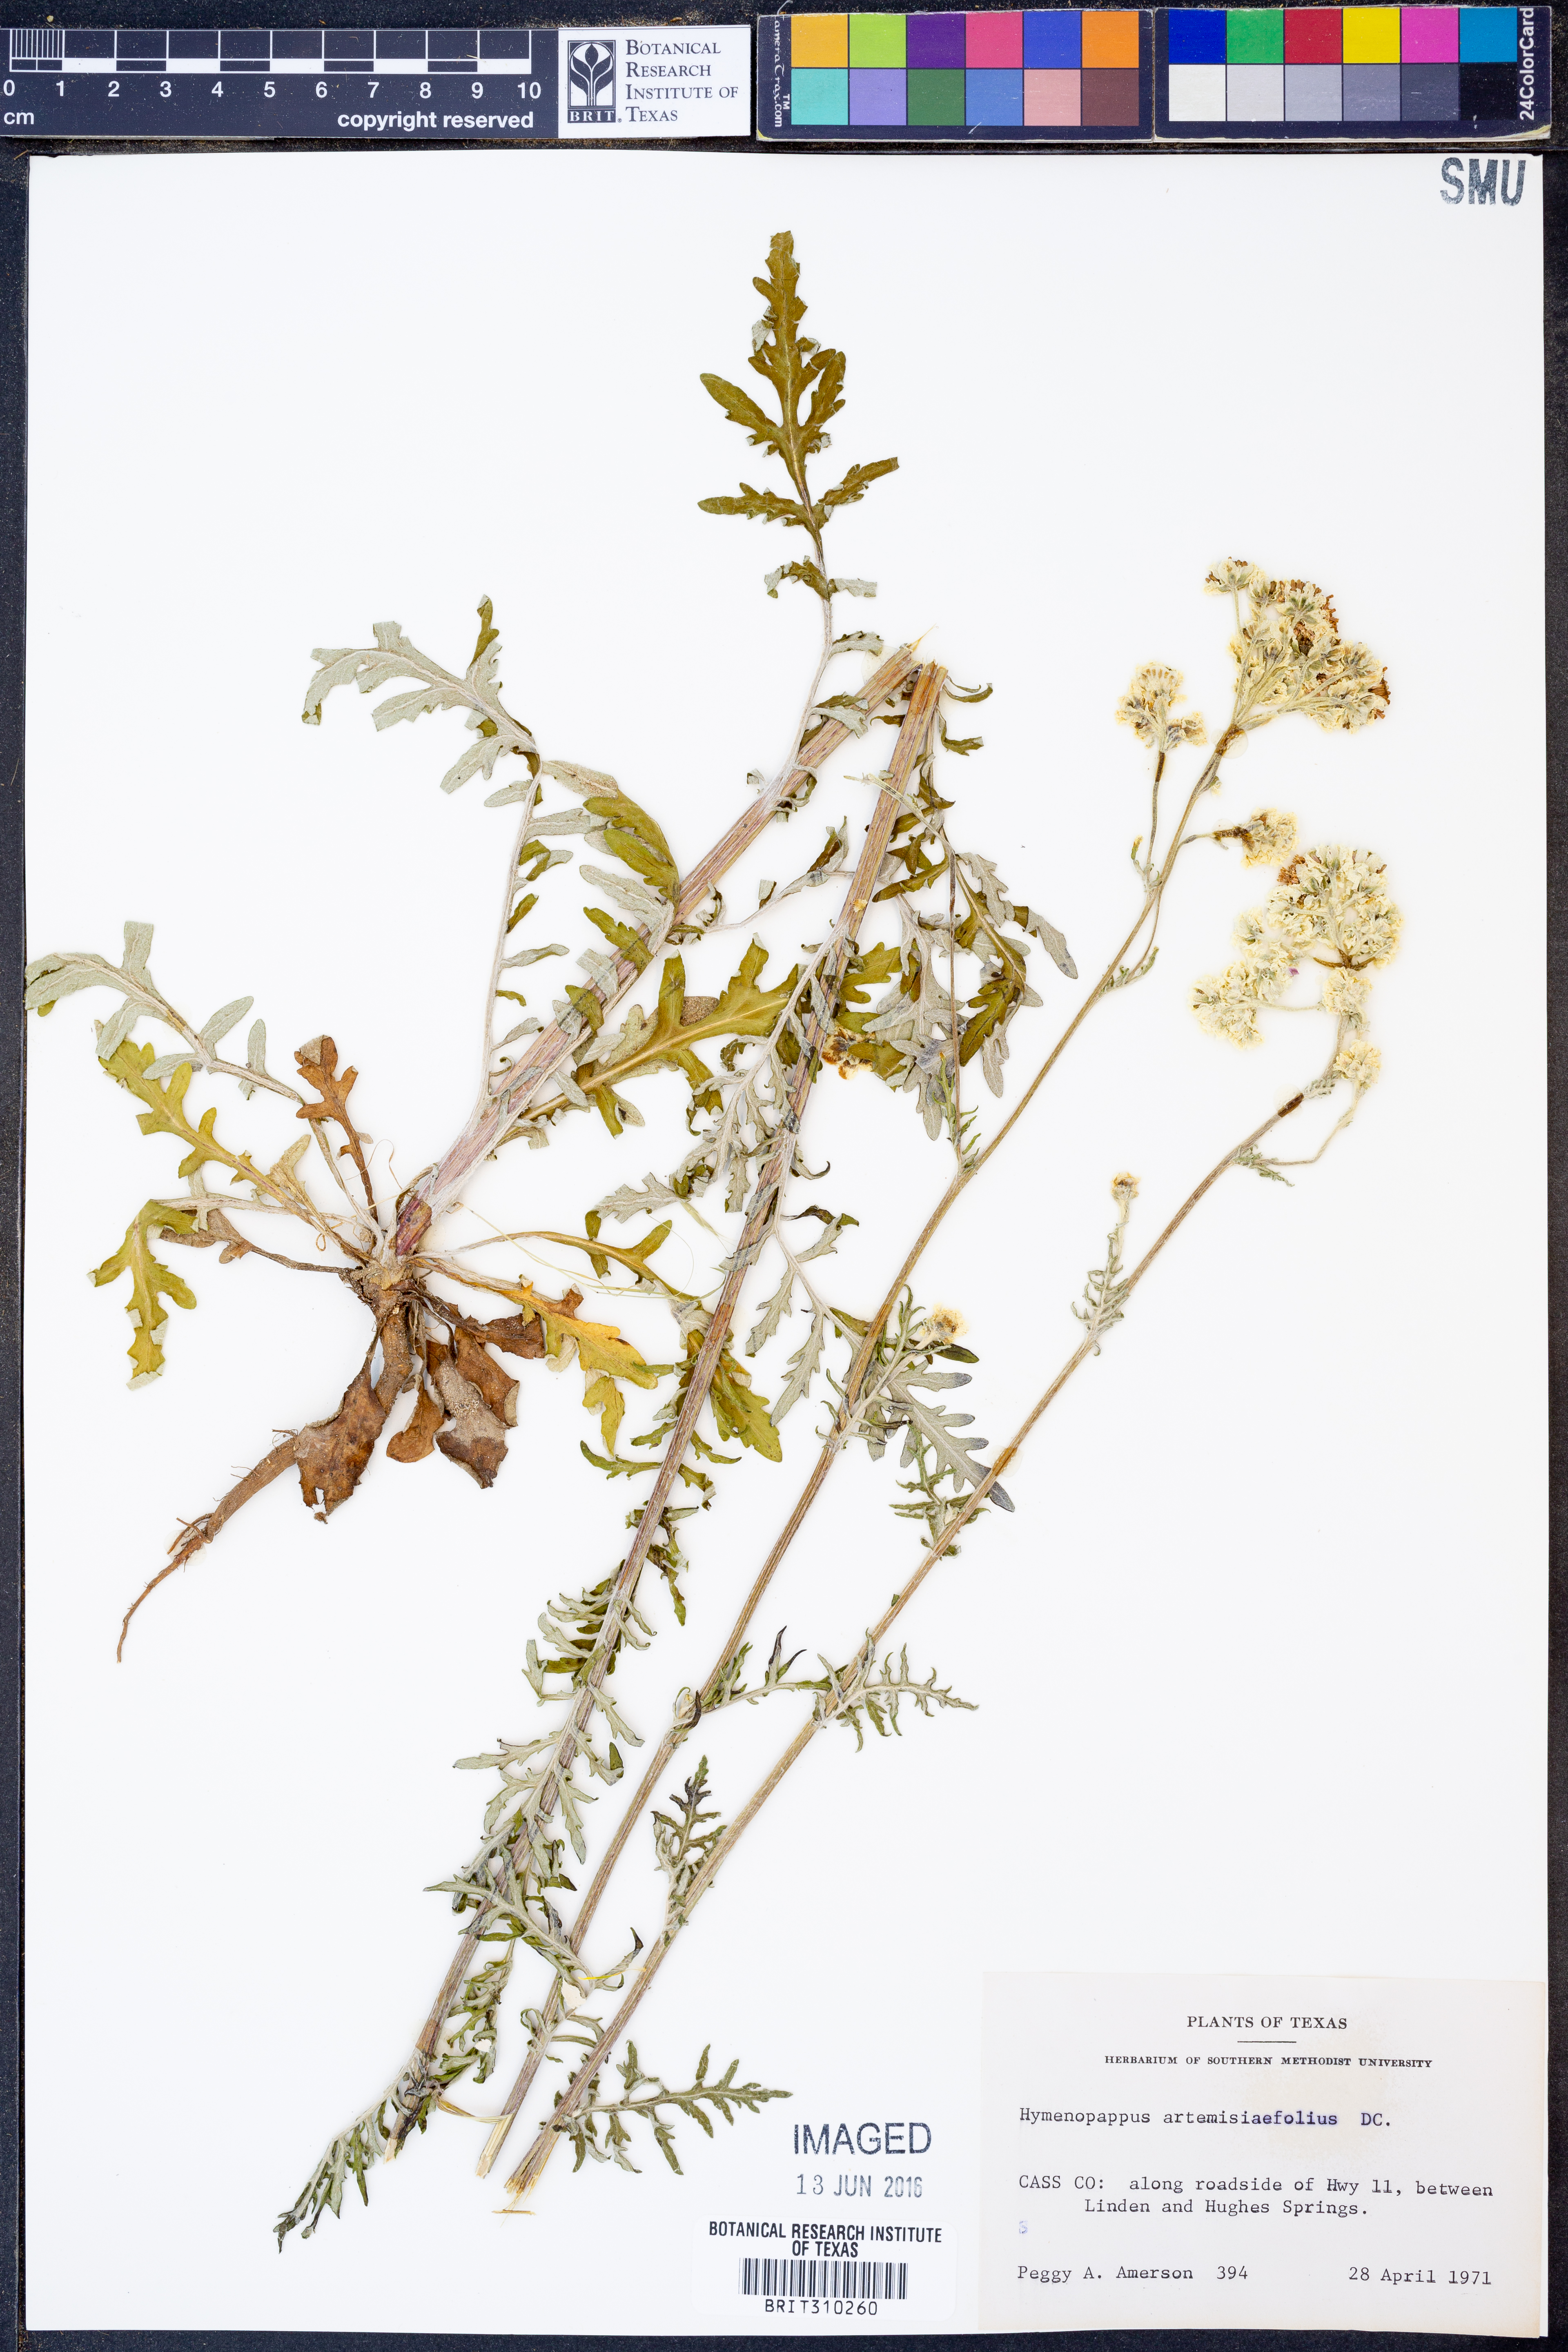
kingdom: Plantae
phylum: Tracheophyta
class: Magnoliopsida
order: Asterales
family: Asteraceae
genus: Hymenopappus
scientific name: Hymenopappus artemisiifolius
